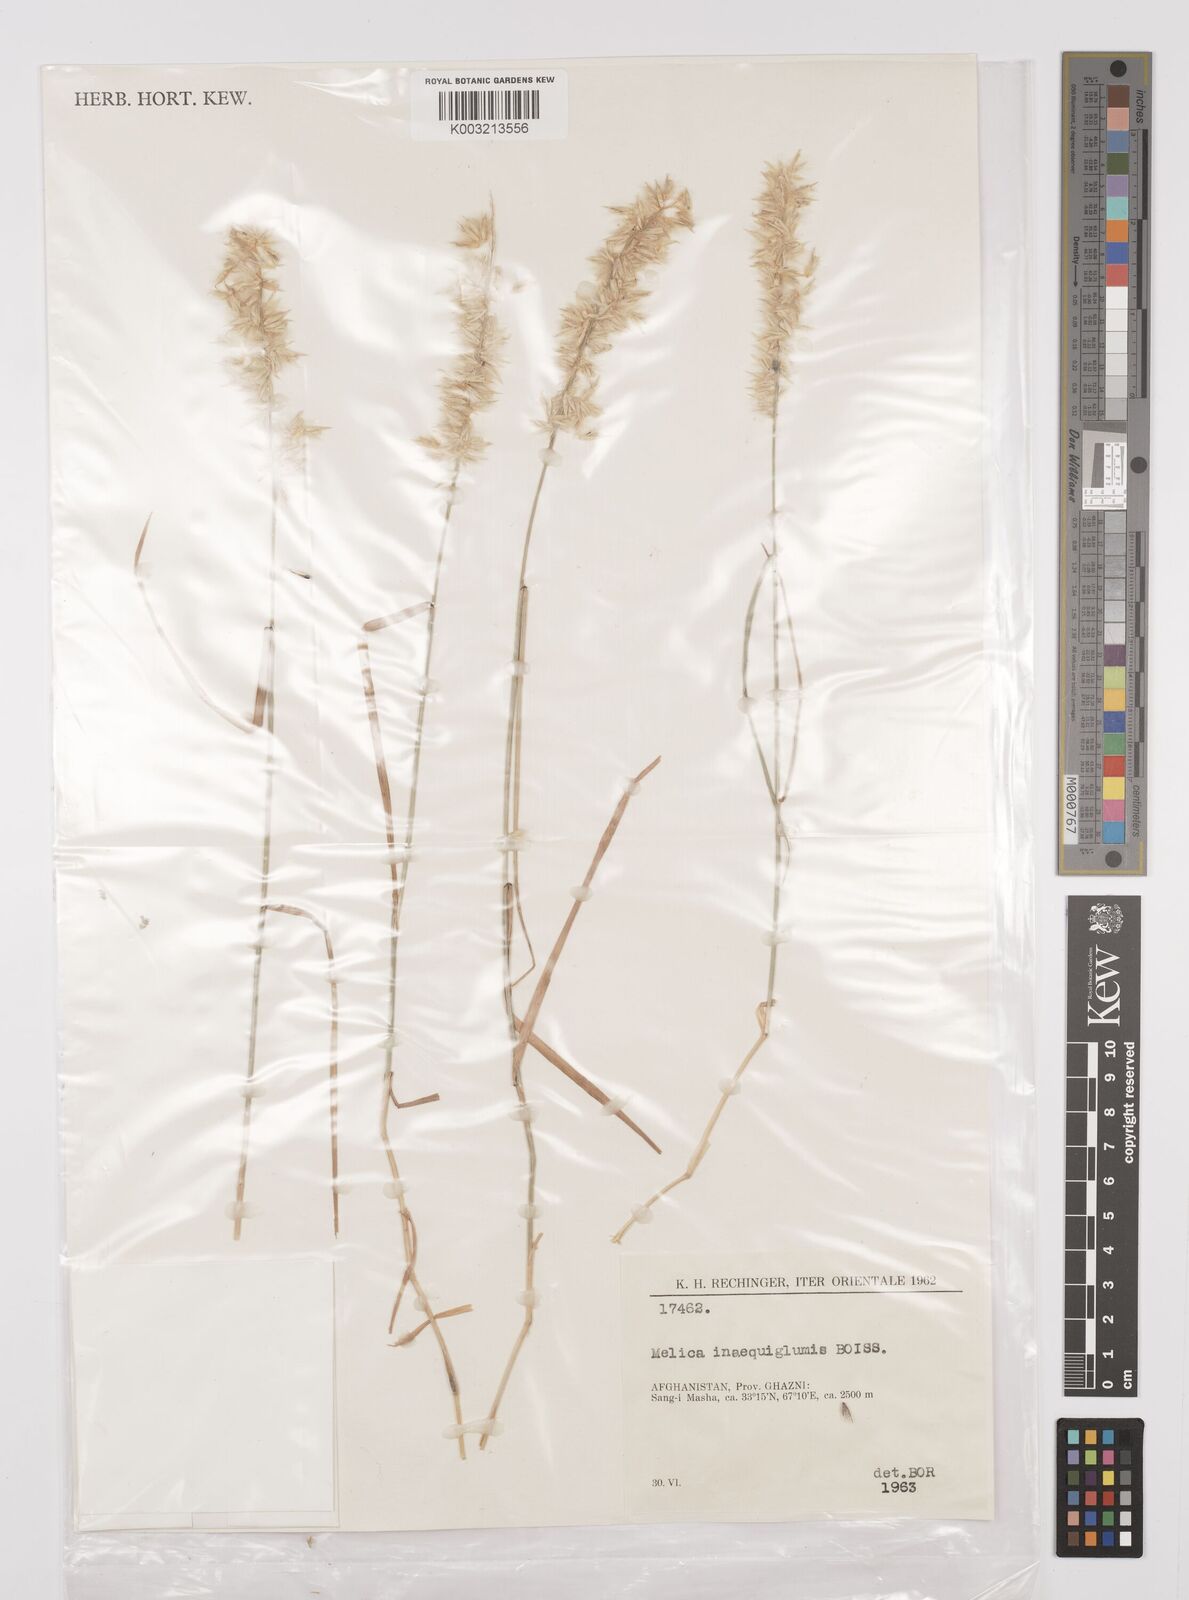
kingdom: Plantae
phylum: Tracheophyta
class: Liliopsida
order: Poales
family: Poaceae
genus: Melica
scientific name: Melica persica
